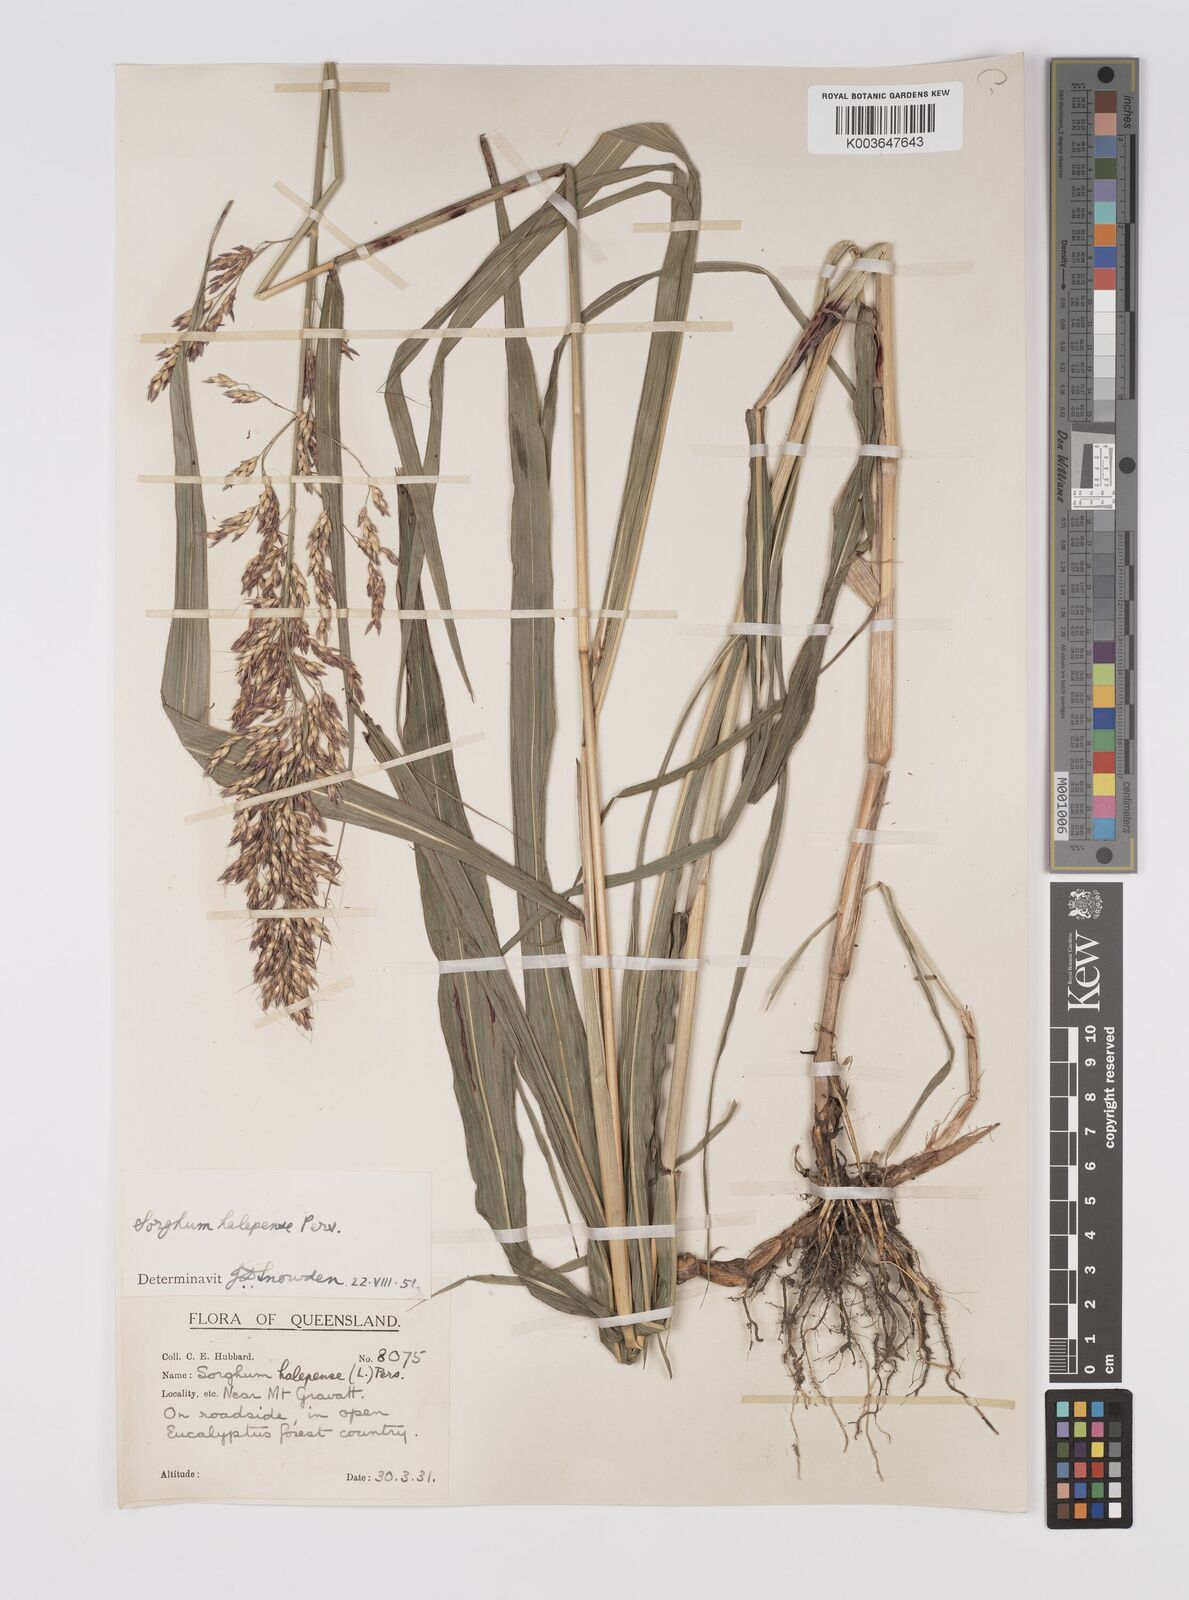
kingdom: Plantae
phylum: Tracheophyta
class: Liliopsida
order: Poales
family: Poaceae
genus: Sorghum
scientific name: Sorghum halepense
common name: Johnson-grass
